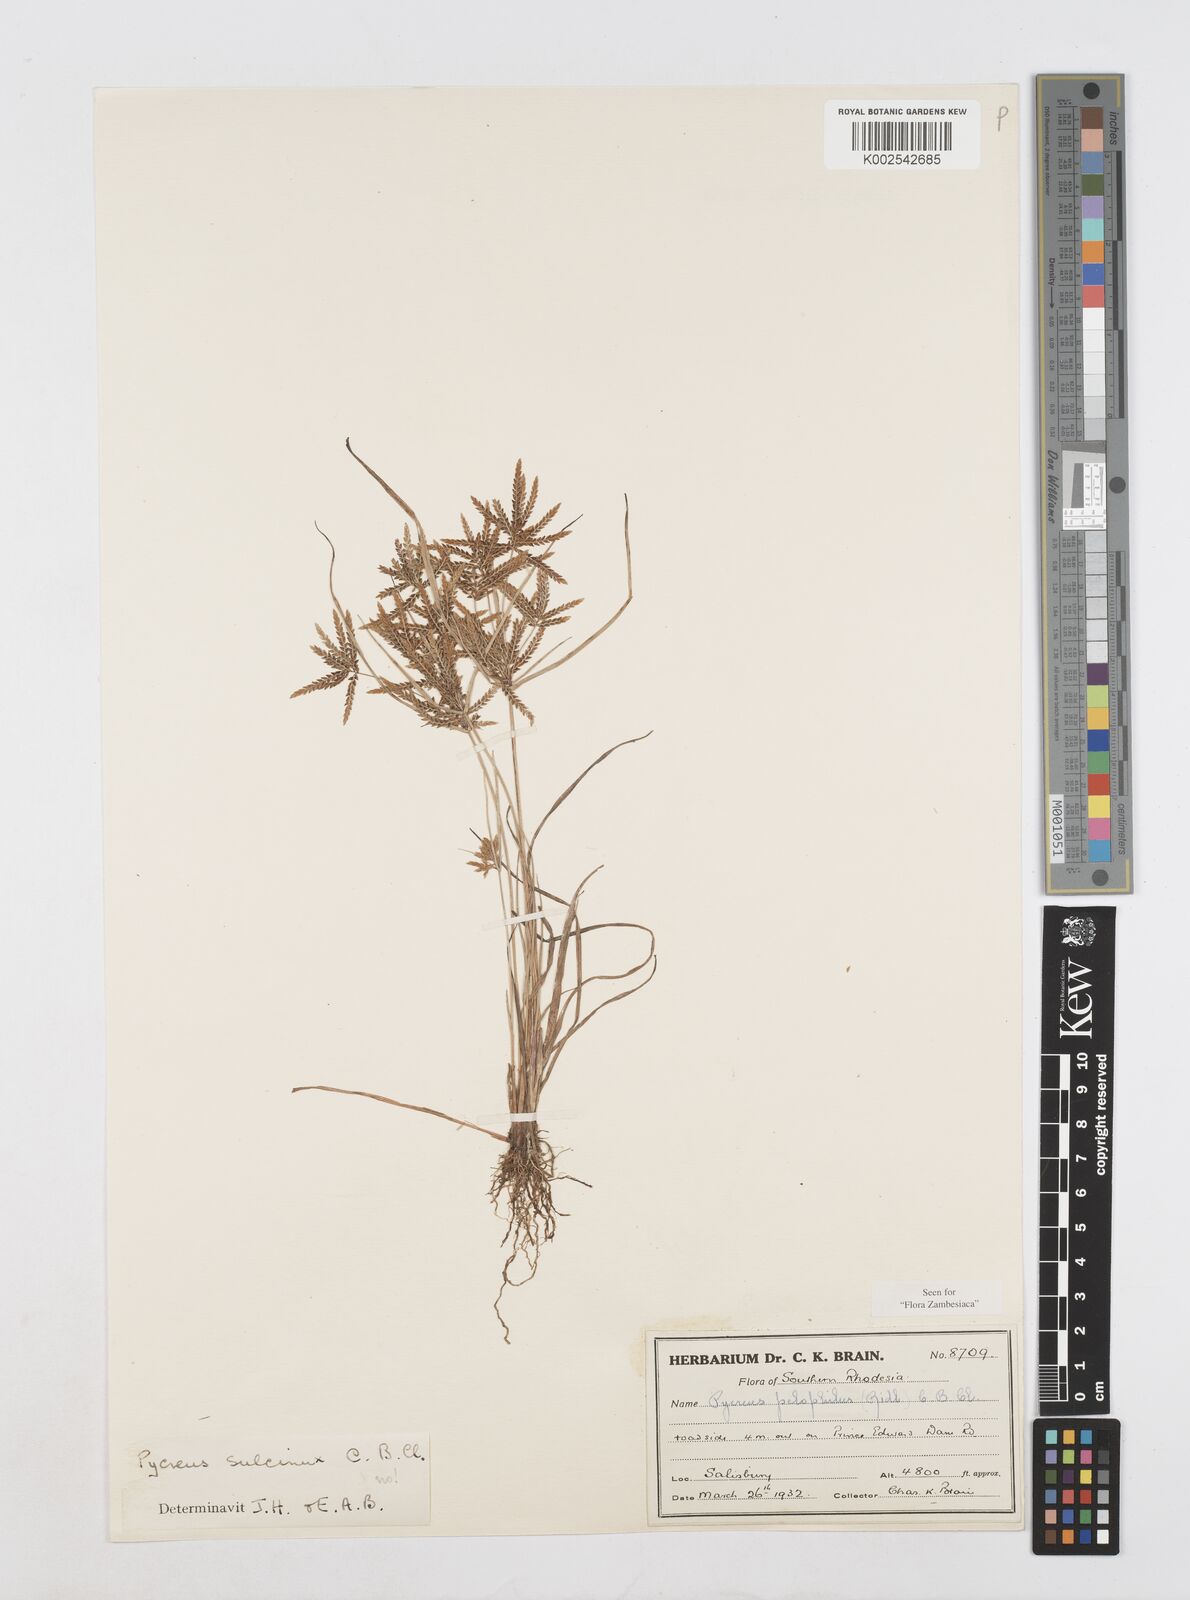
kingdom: Plantae
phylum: Tracheophyta
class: Liliopsida
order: Poales
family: Cyperaceae
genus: Cyperus
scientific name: Cyperus pelophilus
